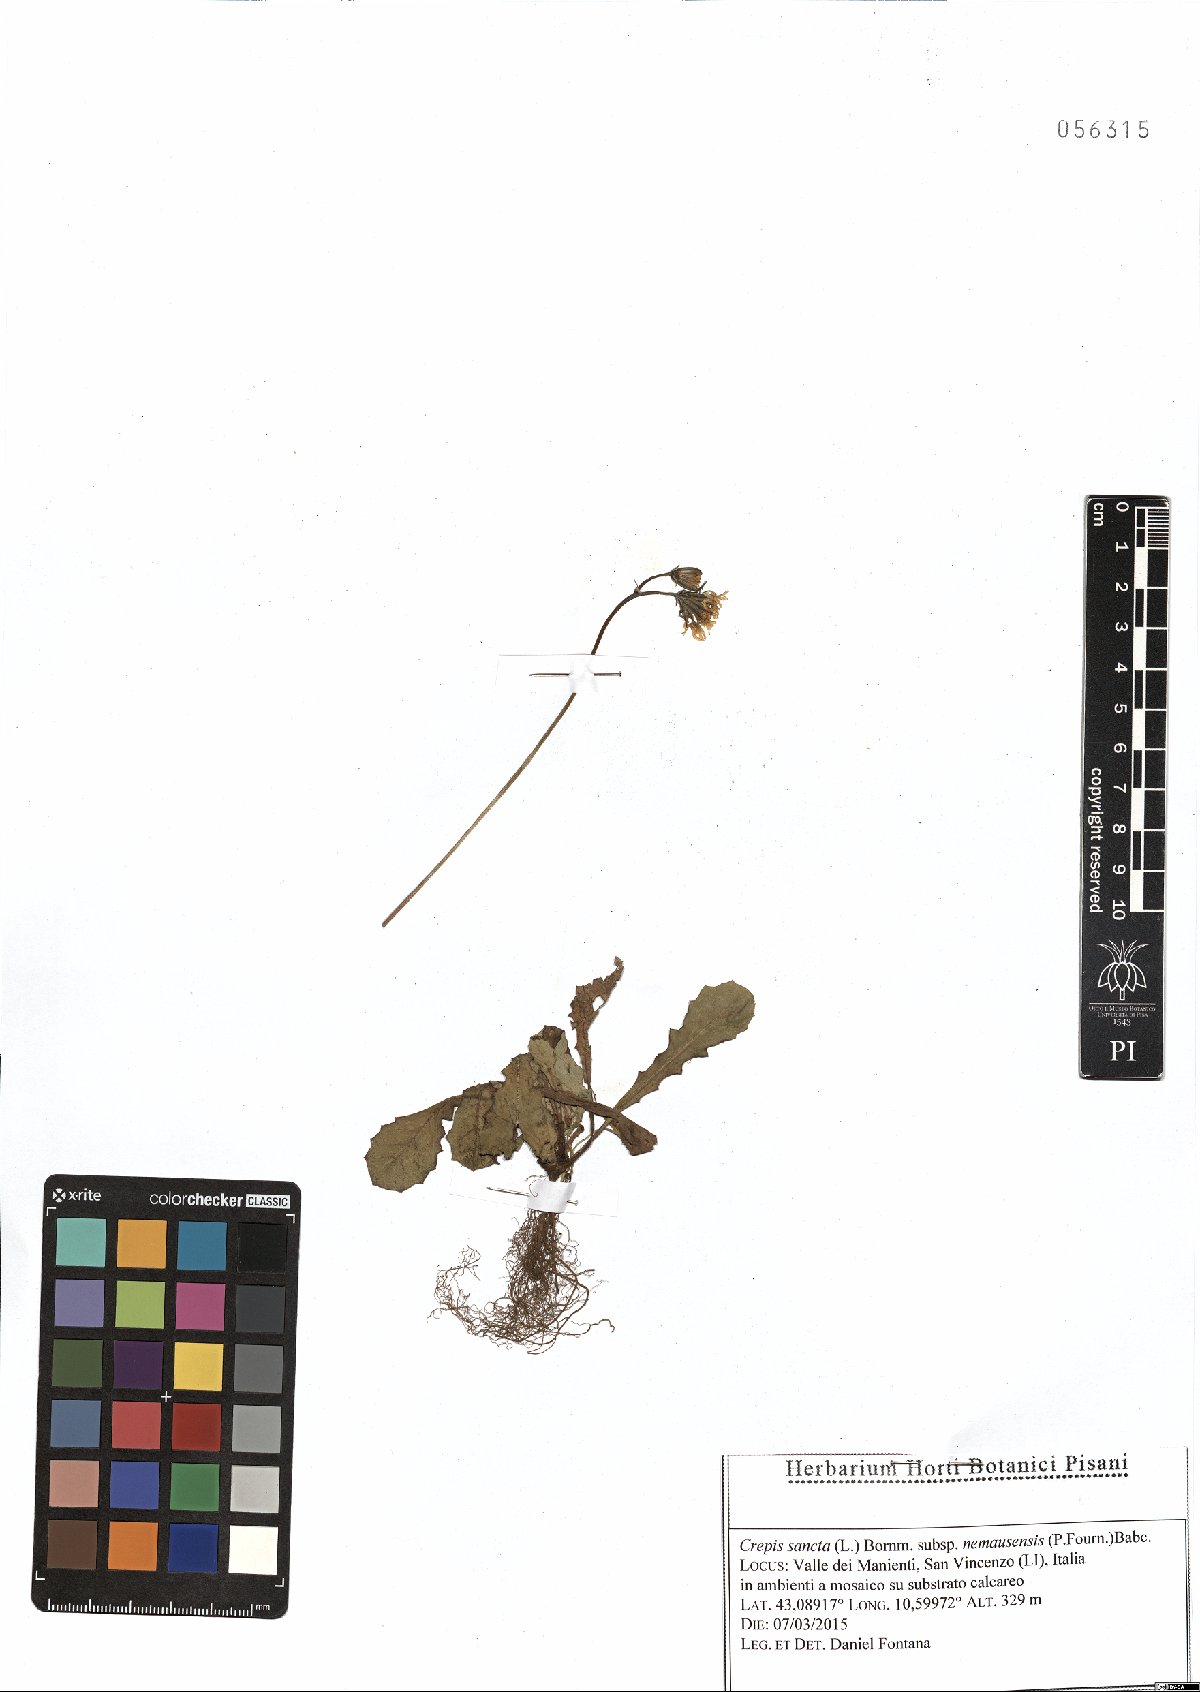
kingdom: Plantae
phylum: Tracheophyta
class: Magnoliopsida
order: Asterales
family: Asteraceae
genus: Crepis
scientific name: Crepis sancta
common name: Hawk's-beard
